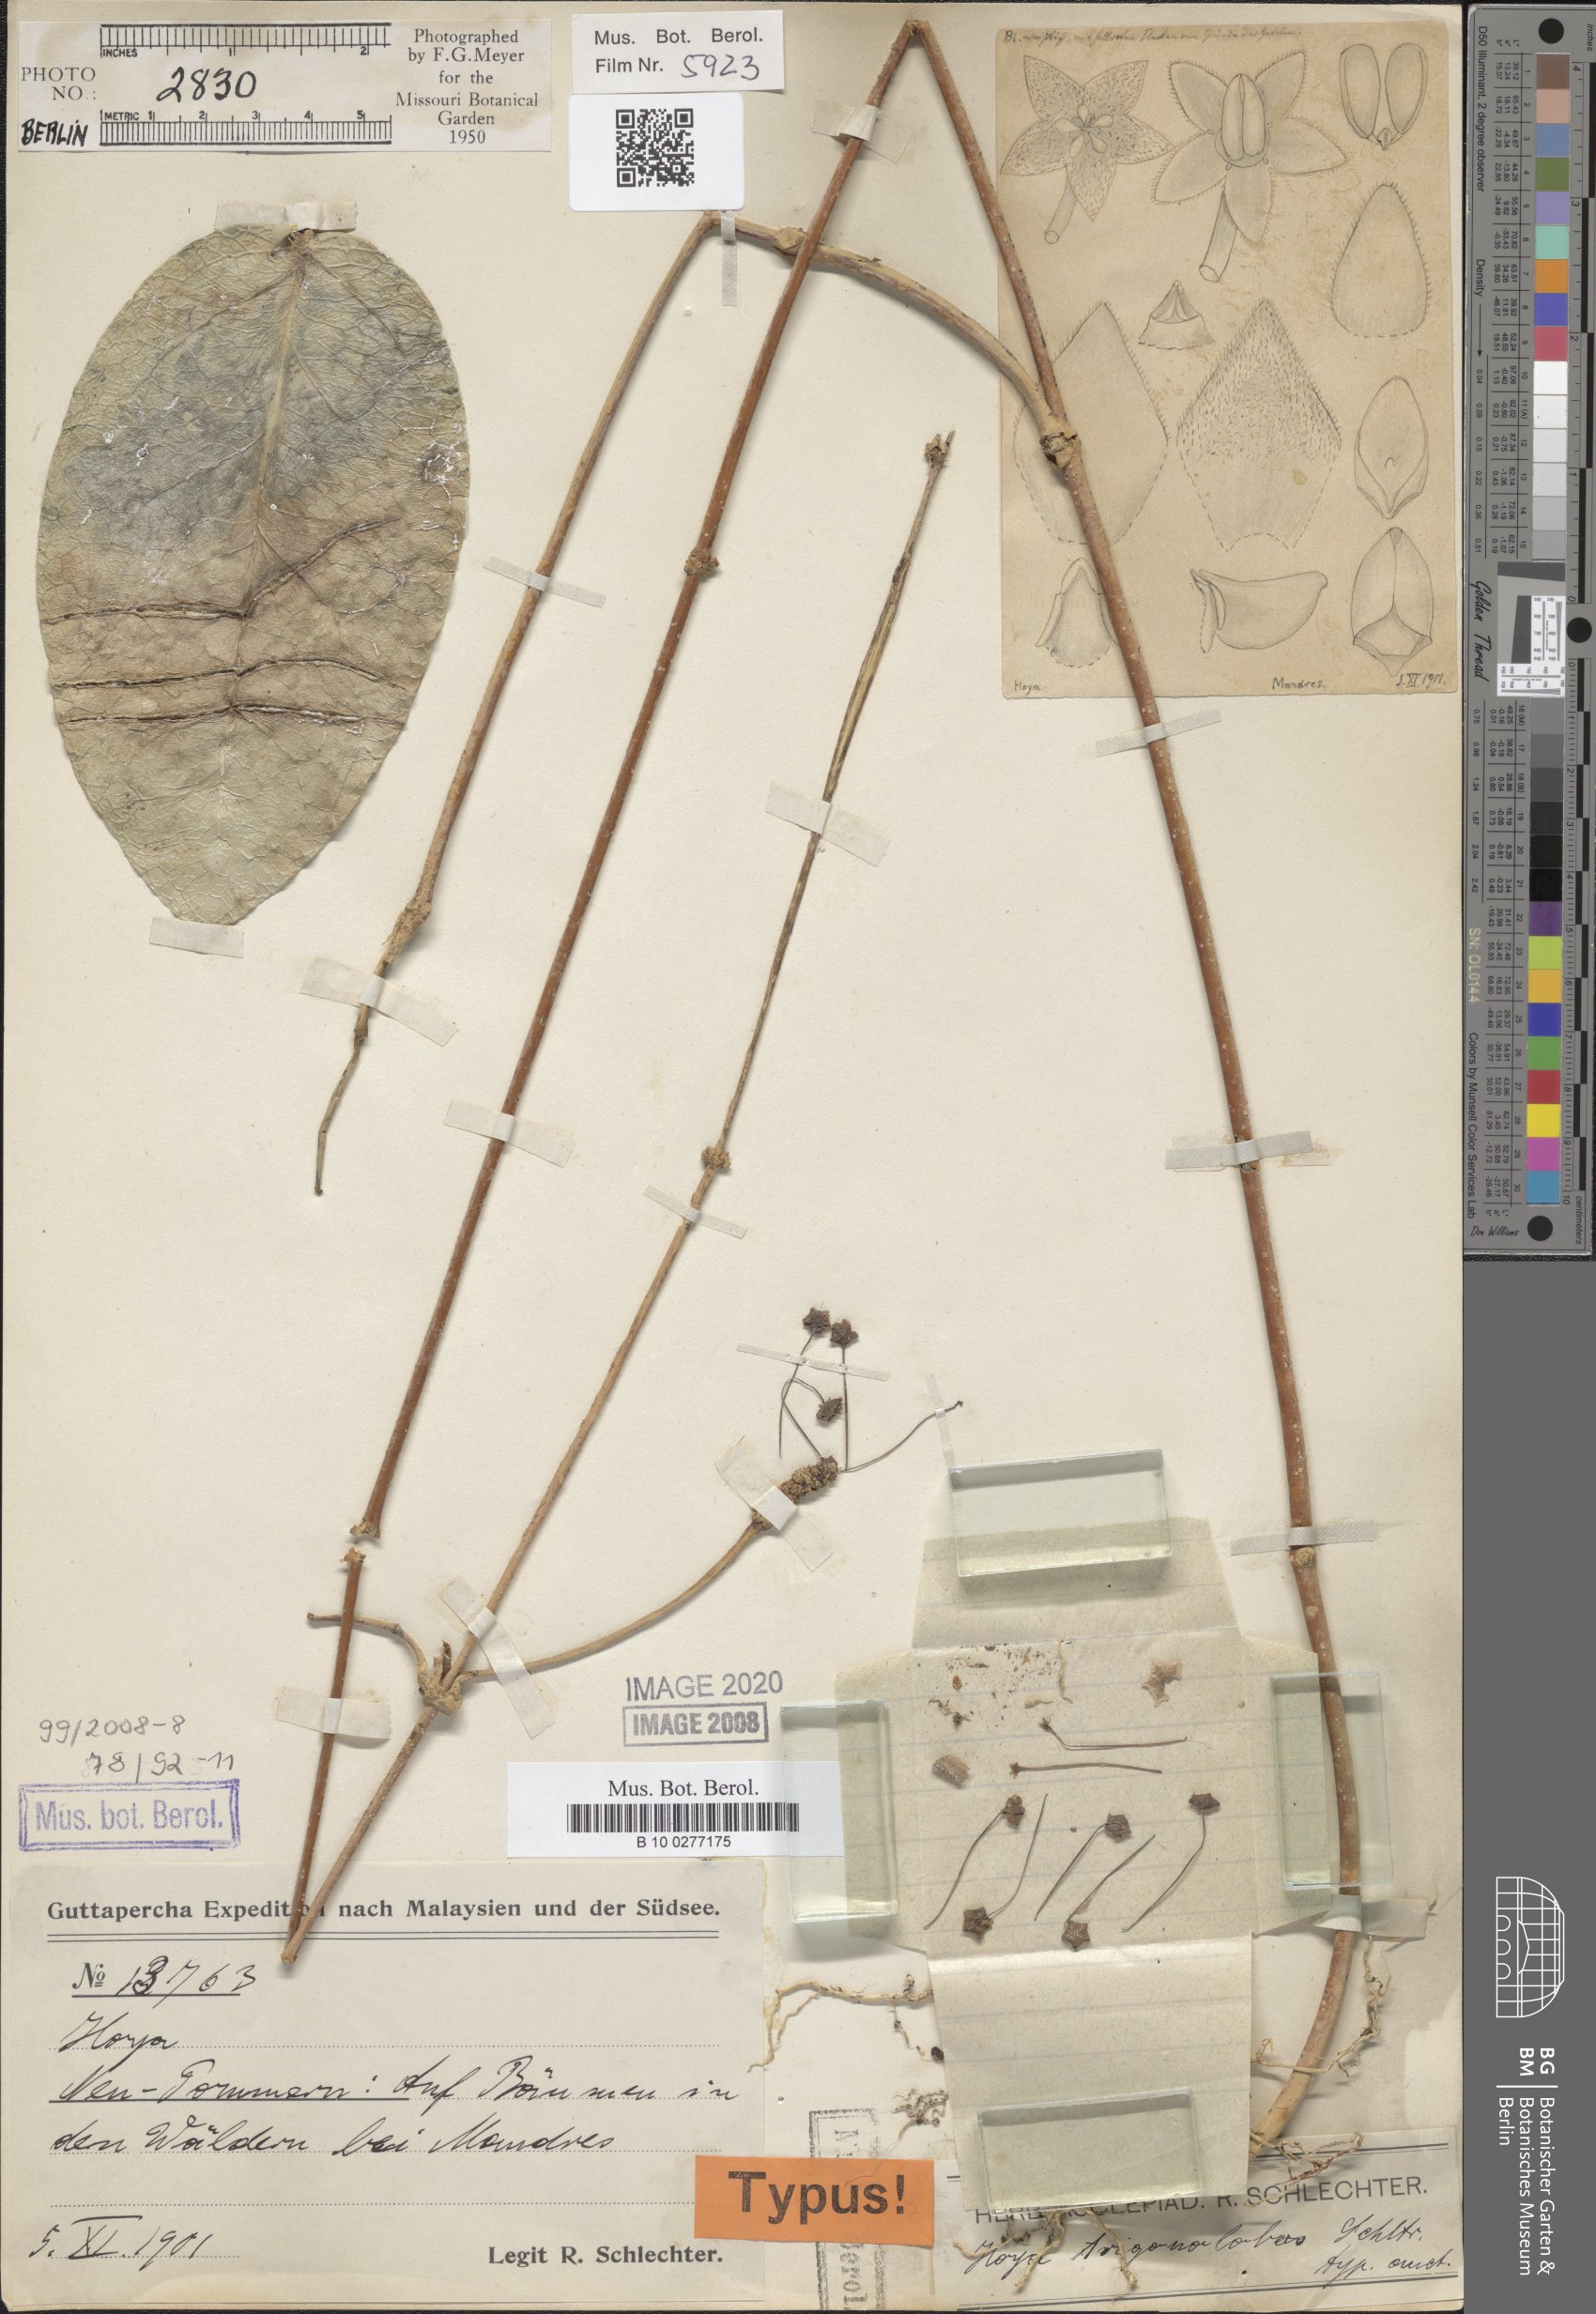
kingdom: Plantae
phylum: Tracheophyta
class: Magnoliopsida
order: Gentianales
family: Apocynaceae
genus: Hoya
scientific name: Hoya trigonolobos
